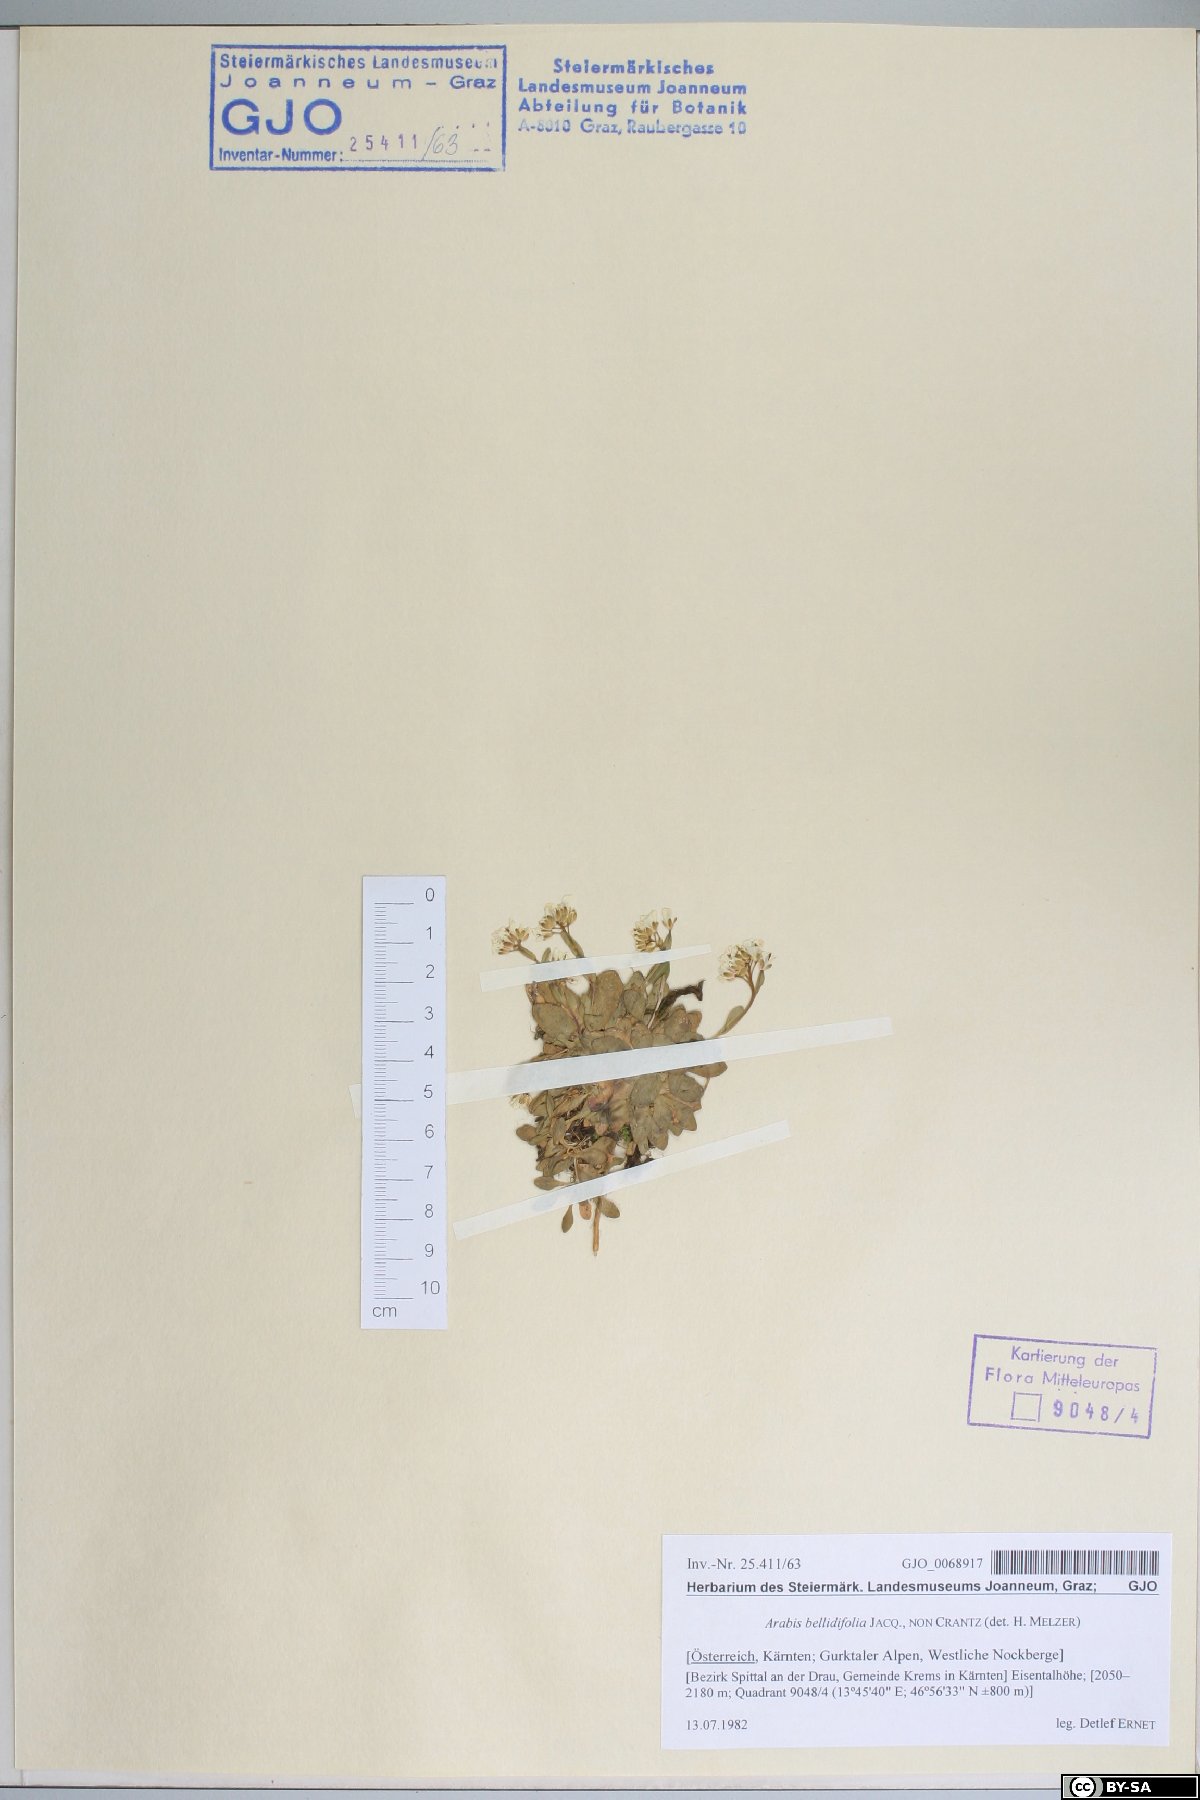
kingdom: Plantae
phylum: Tracheophyta
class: Magnoliopsida
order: Brassicales
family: Brassicaceae
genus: Arabis
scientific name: Arabis soyeri
